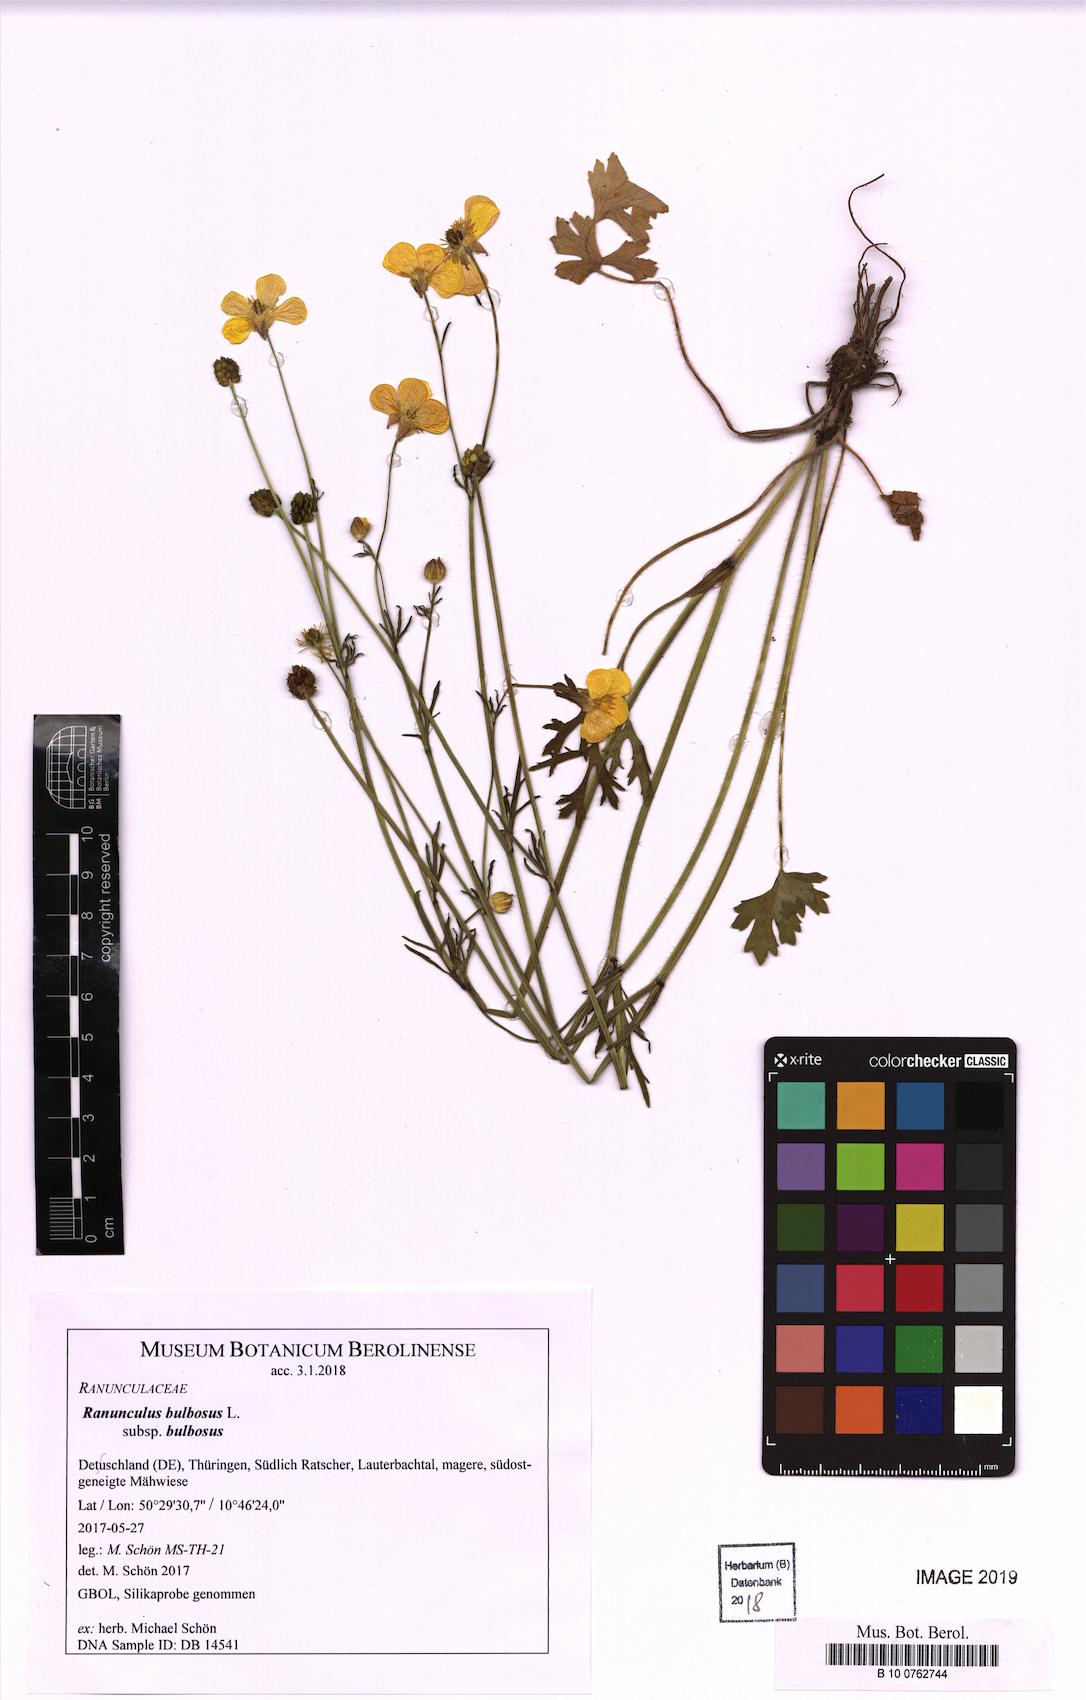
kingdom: Plantae
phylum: Tracheophyta
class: Magnoliopsida
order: Ranunculales
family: Ranunculaceae
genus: Ranunculus
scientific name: Ranunculus bulbosus
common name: Bulbous buttercup
